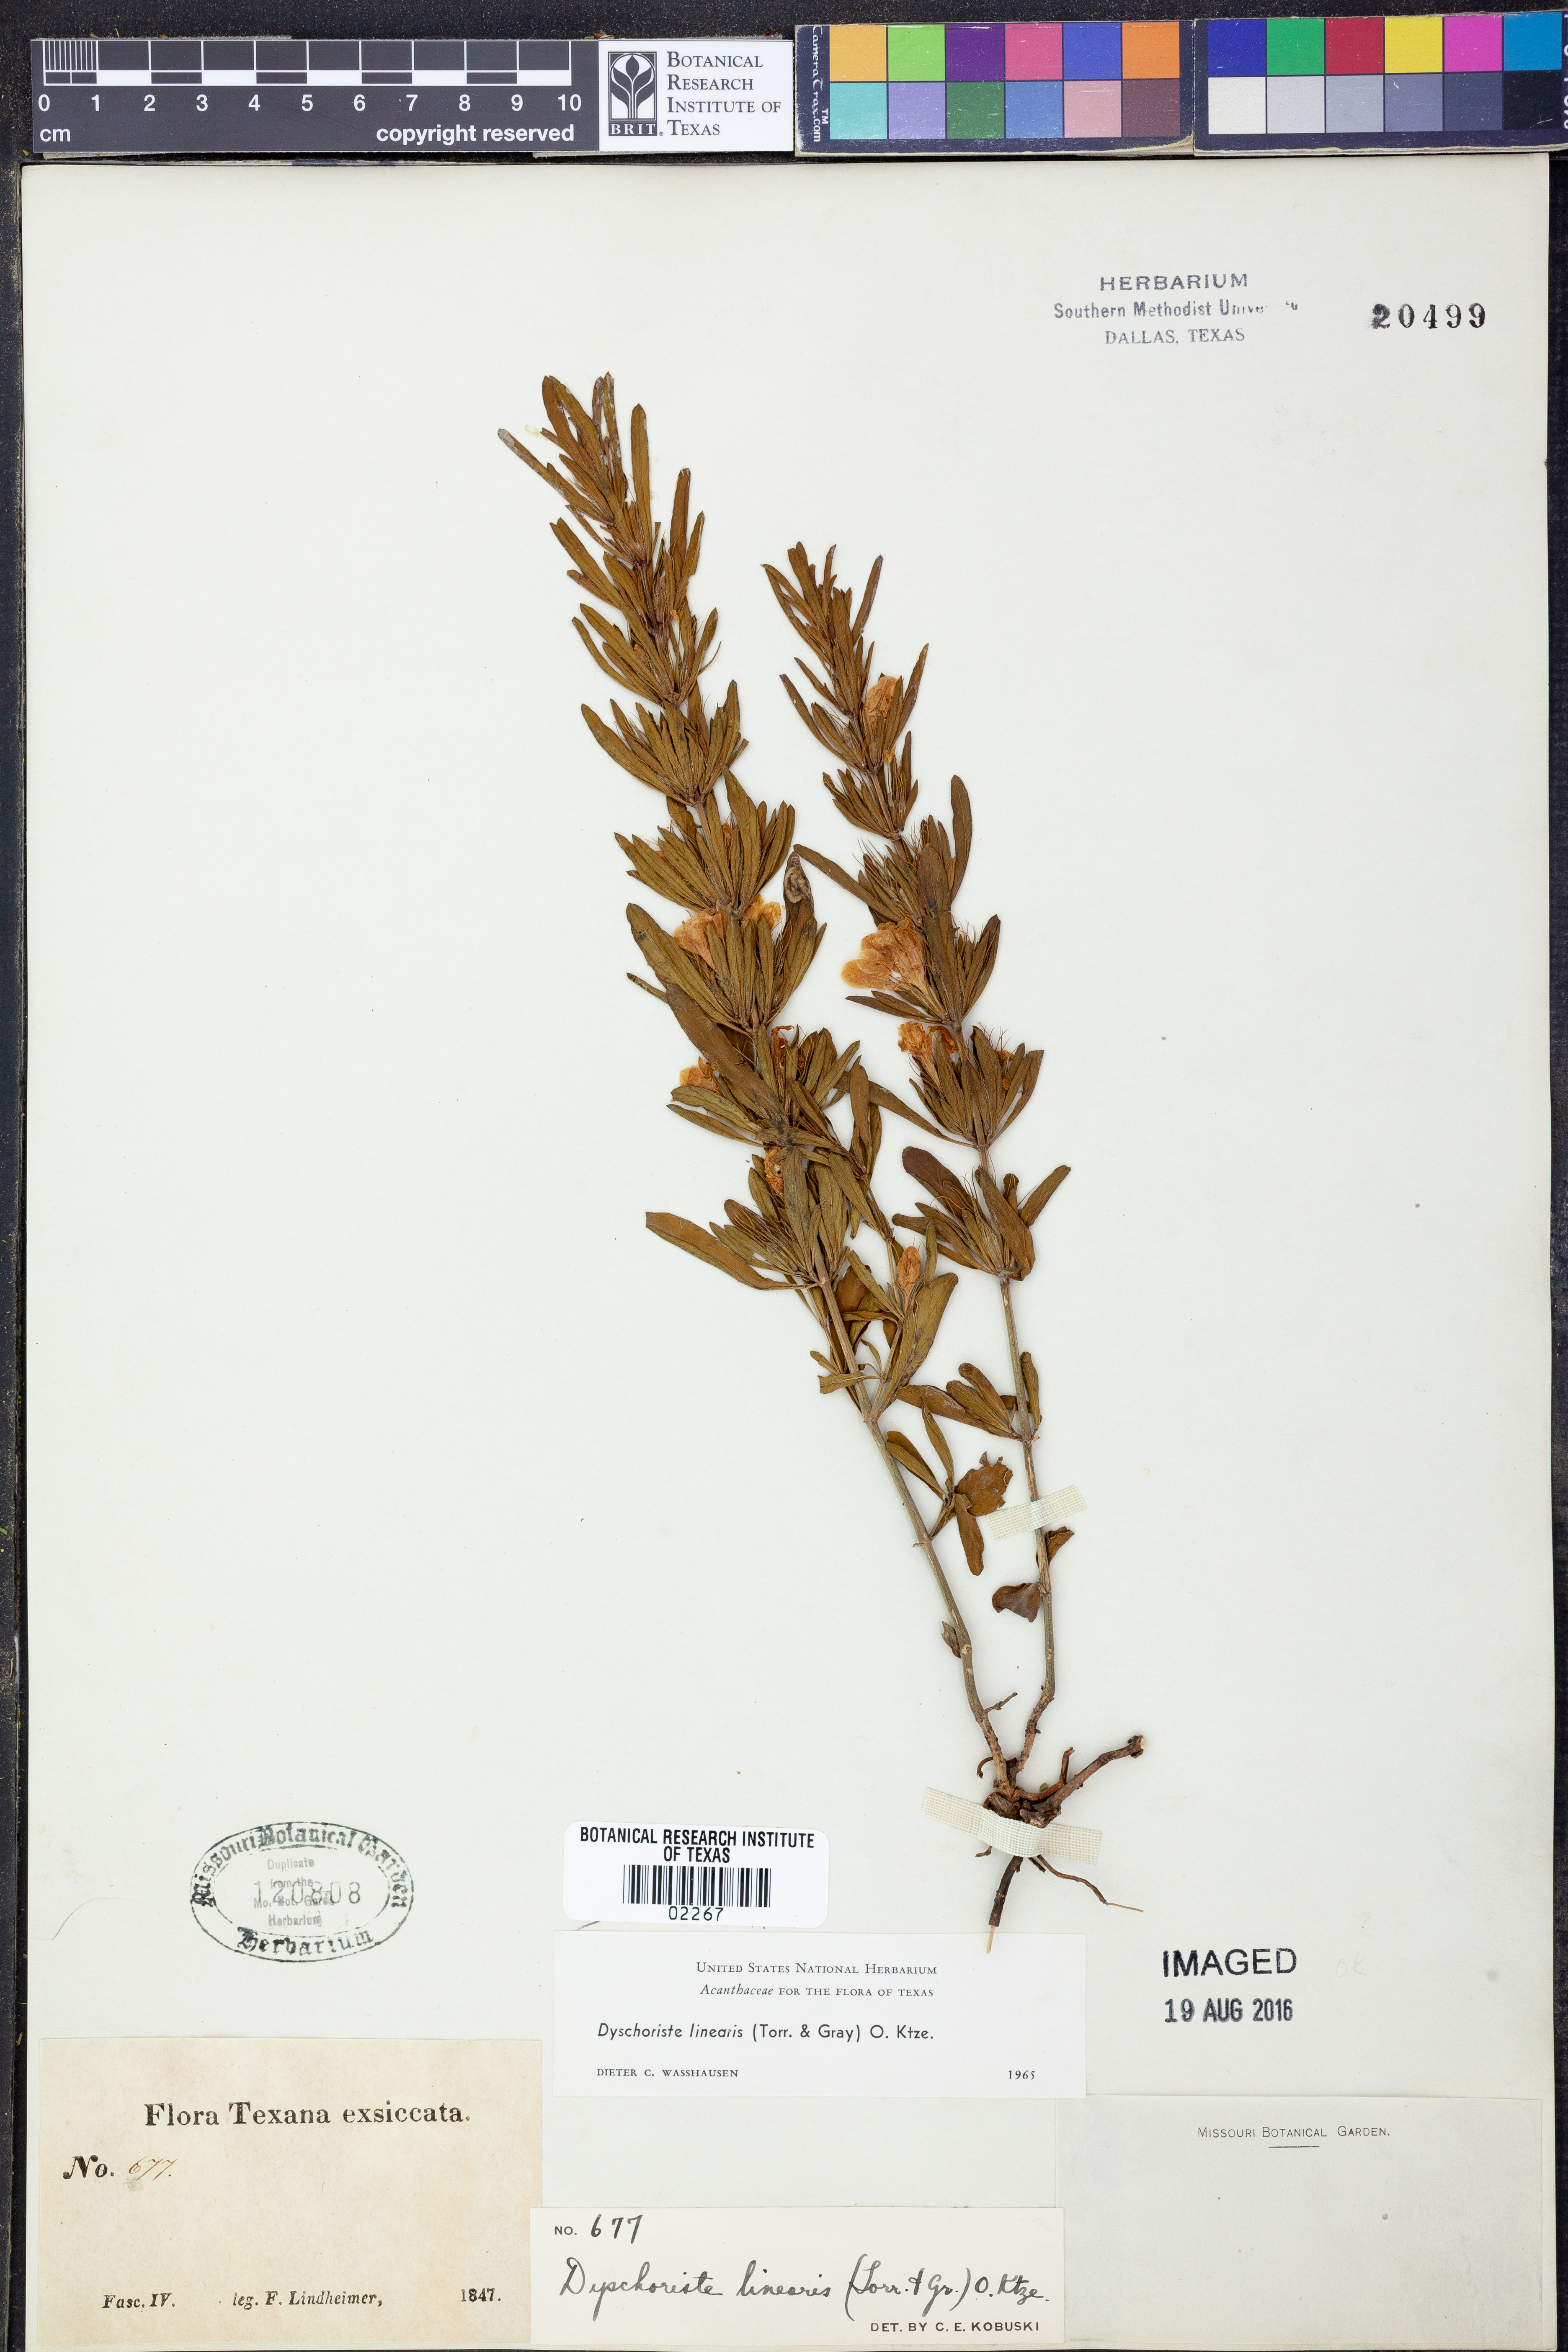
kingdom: Plantae
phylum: Tracheophyta
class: Magnoliopsida
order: Lamiales
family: Acanthaceae
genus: Dyschoriste
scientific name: Dyschoriste linearis
